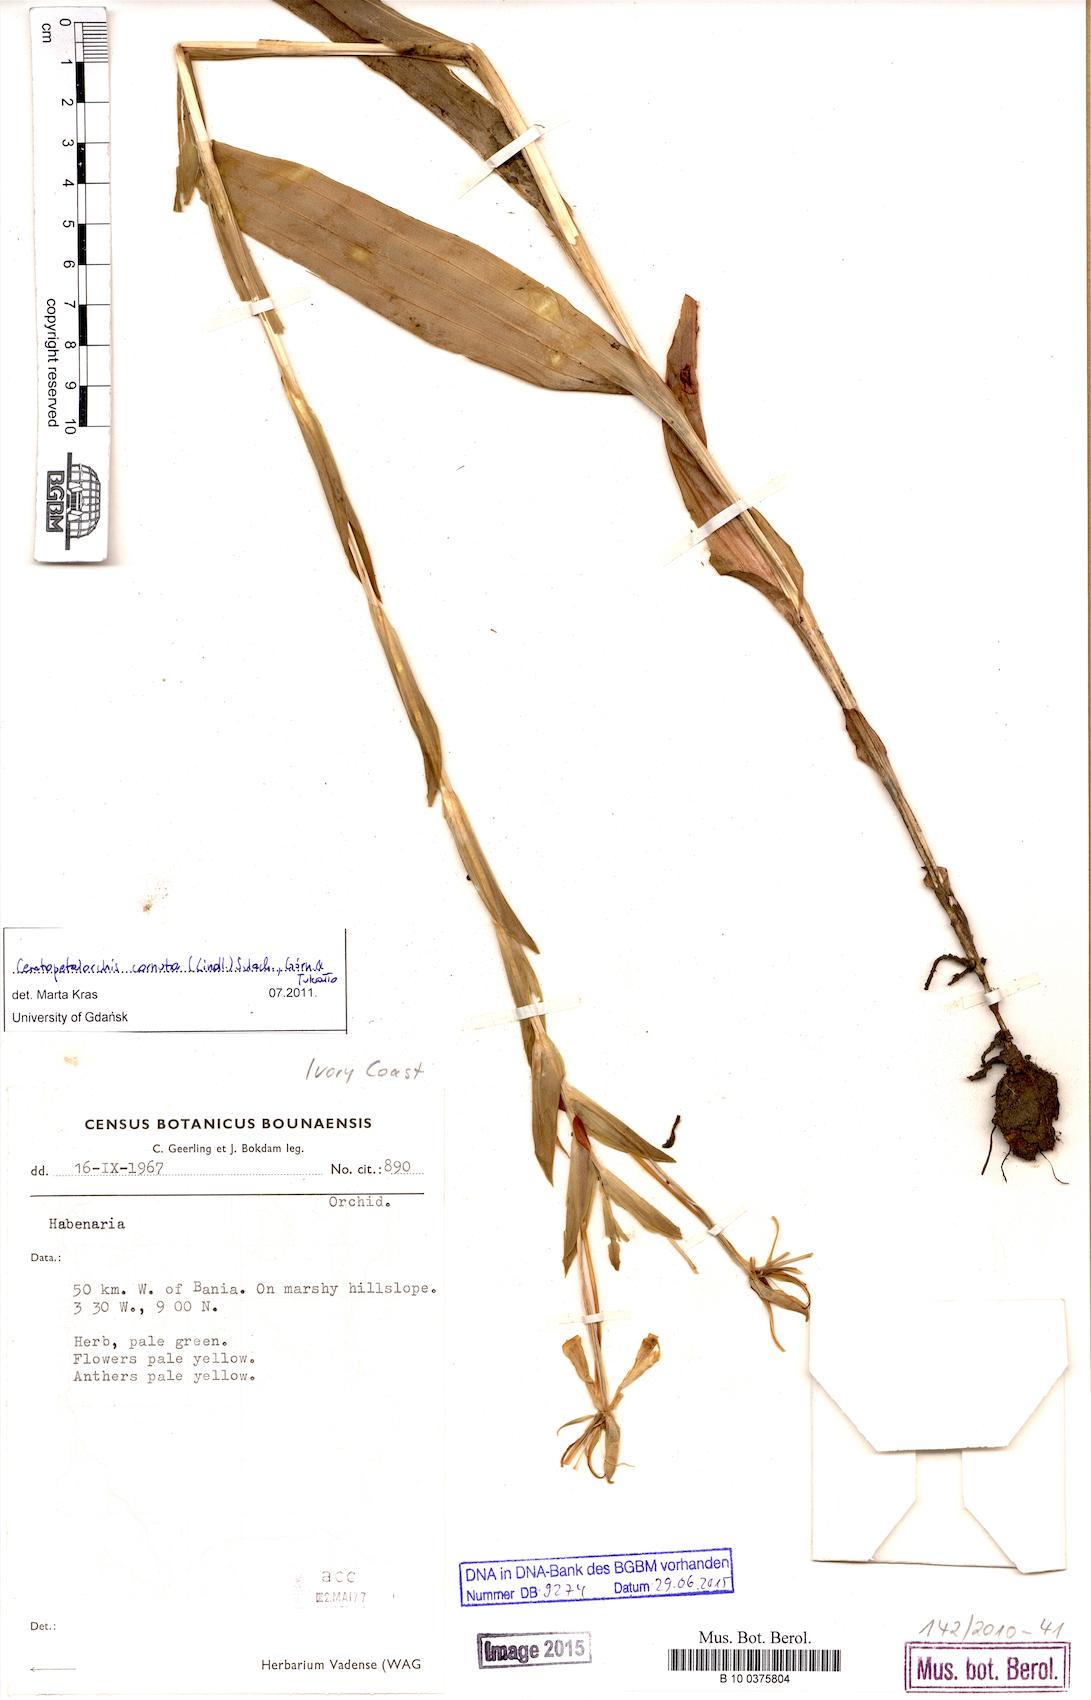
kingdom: Plantae
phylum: Tracheophyta
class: Liliopsida
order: Asparagales
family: Orchidaceae
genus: Habenaria
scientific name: Habenaria cornuta
